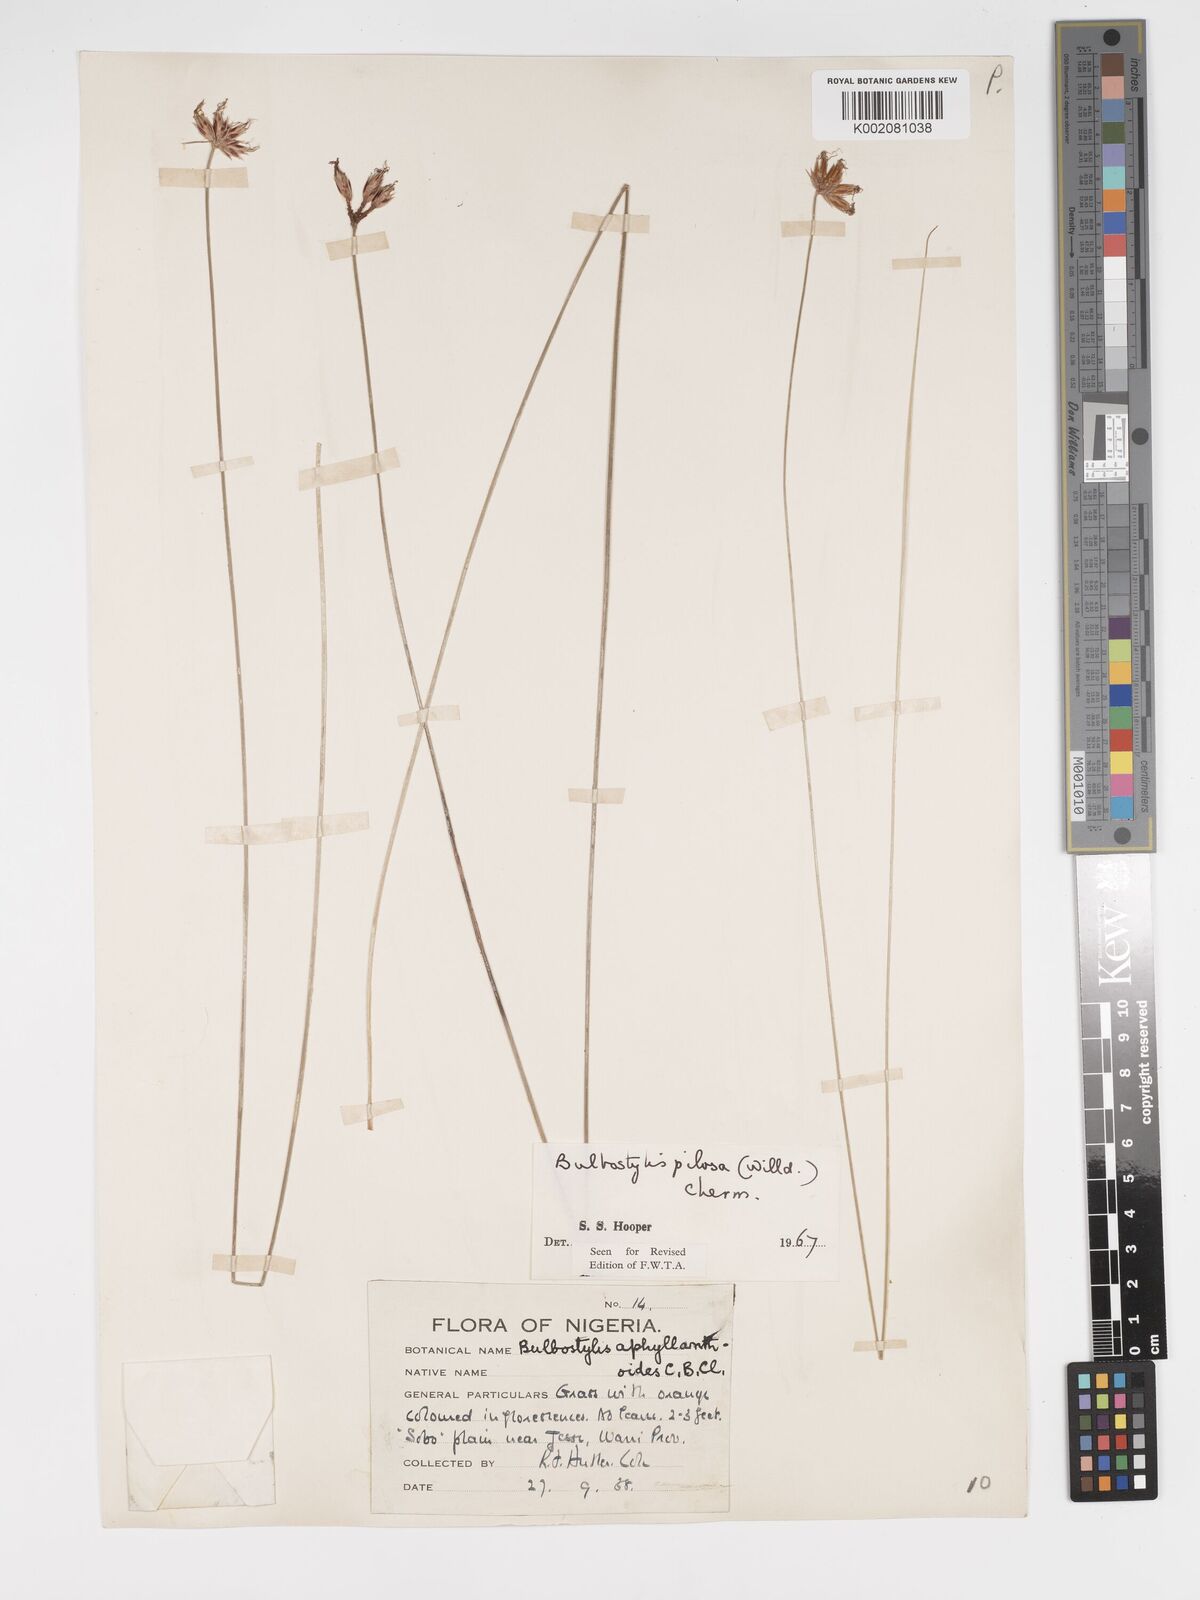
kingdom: Plantae
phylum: Tracheophyta
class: Liliopsida
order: Poales
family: Cyperaceae
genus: Bulbostylis
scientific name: Bulbostylis pilosa
